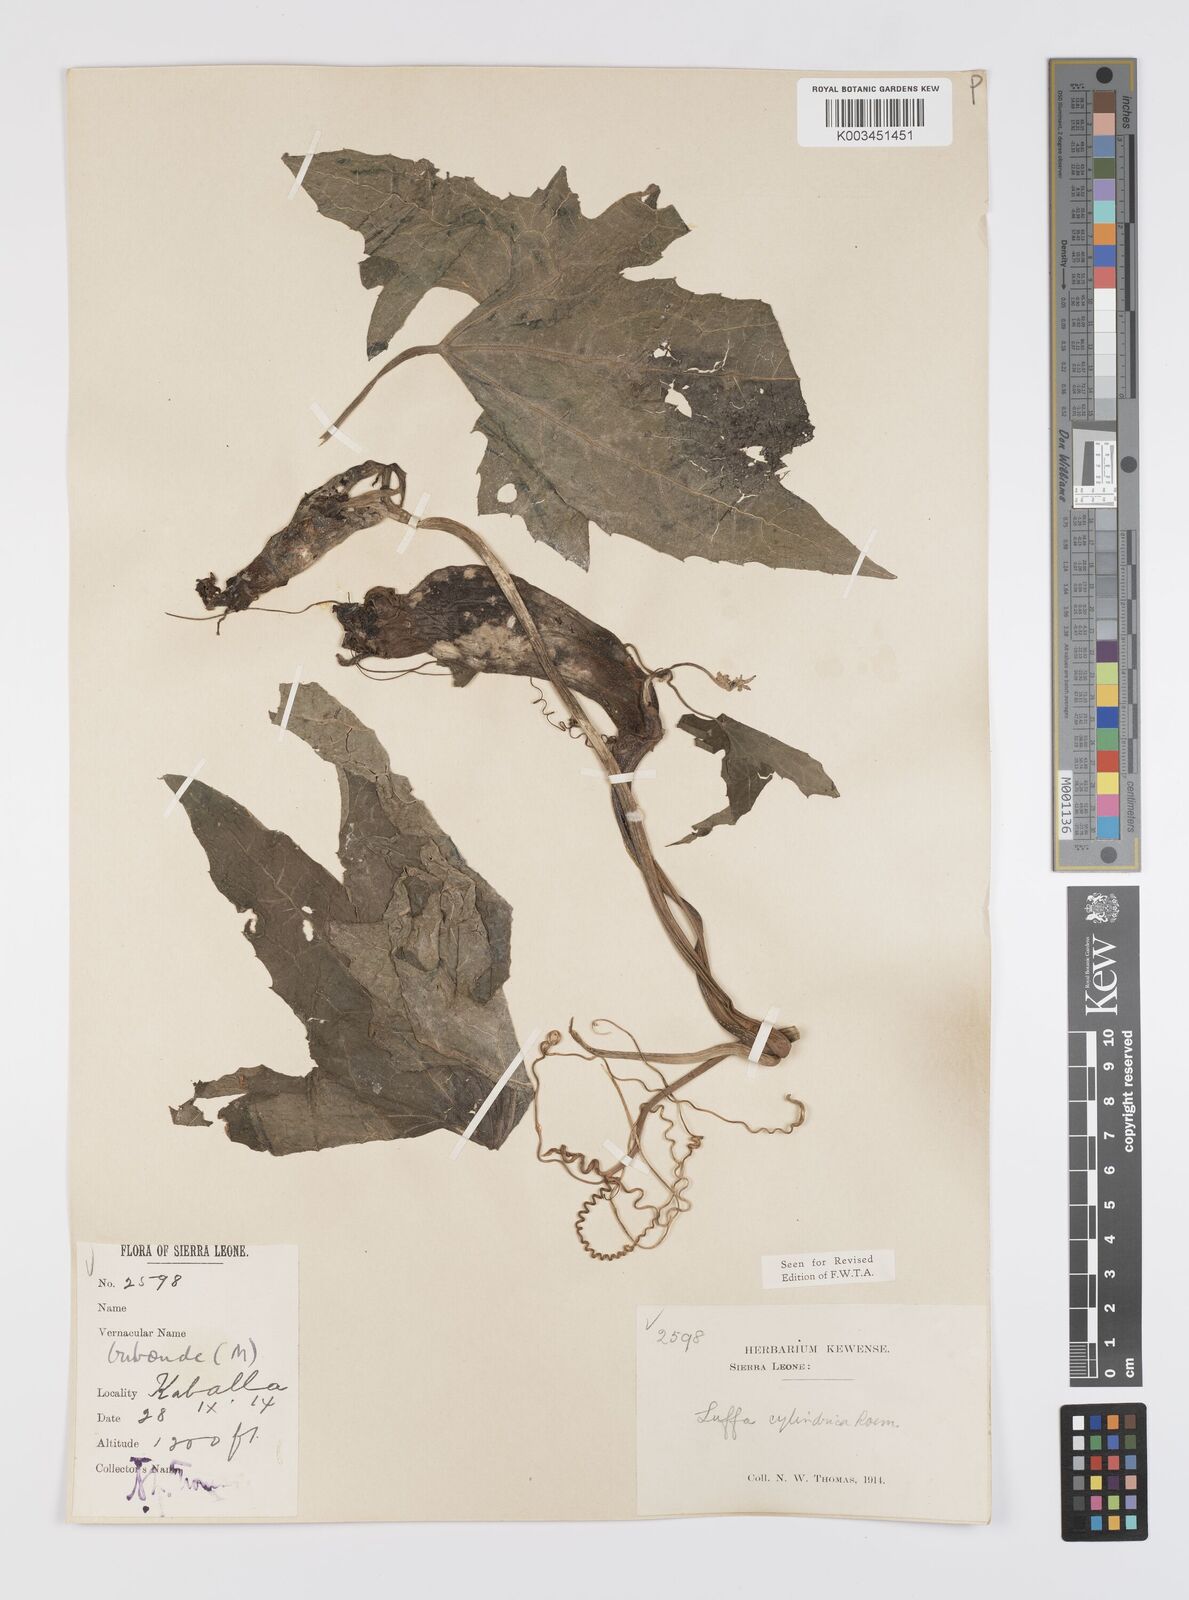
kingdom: Plantae
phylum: Tracheophyta
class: Magnoliopsida
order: Cucurbitales
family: Cucurbitaceae
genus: Luffa
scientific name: Luffa aegyptiaca
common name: Sponge gourd
